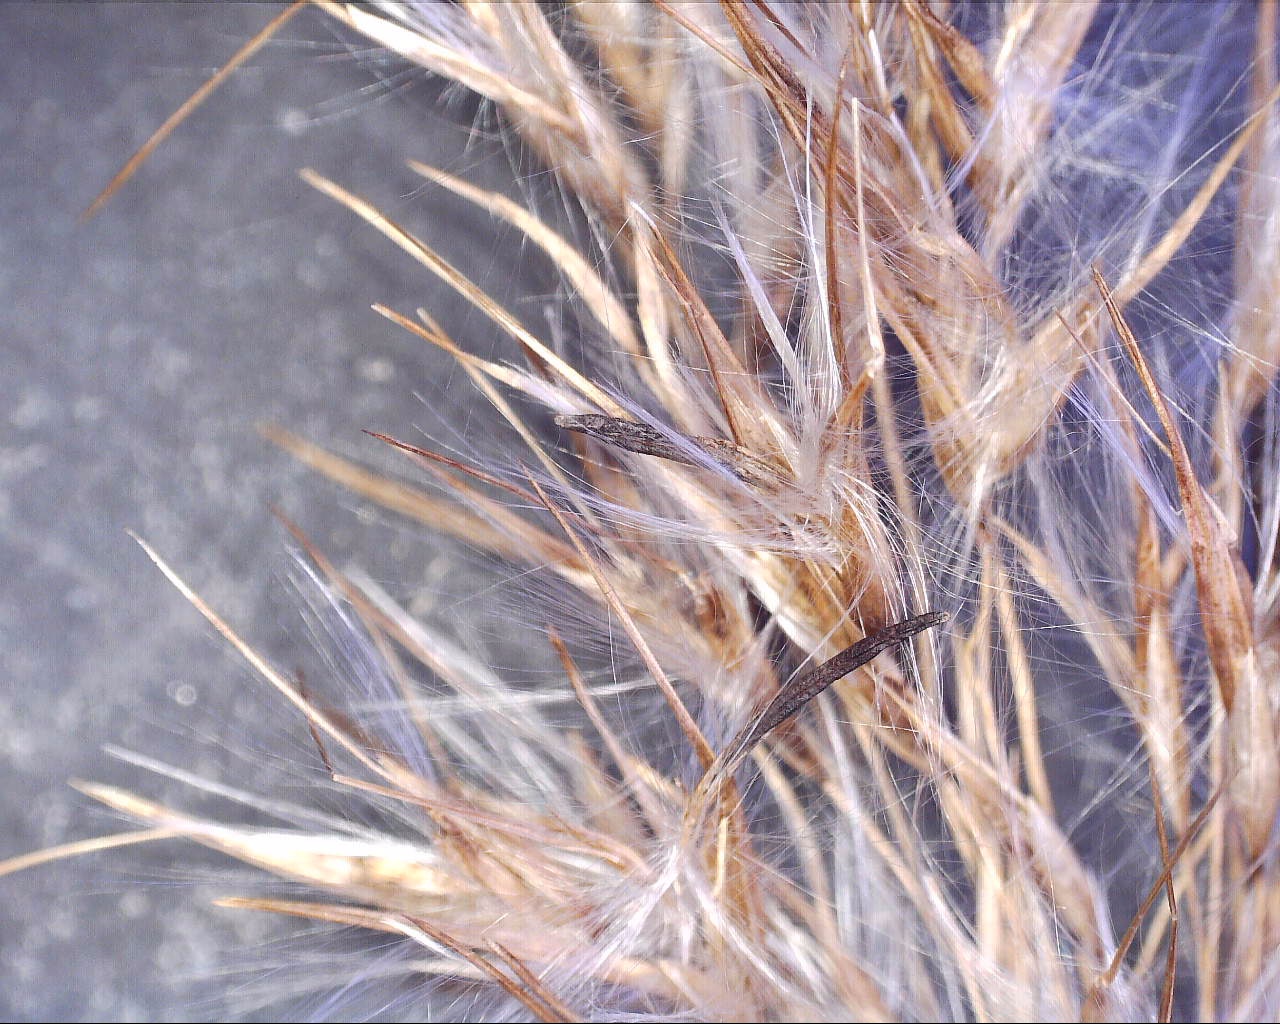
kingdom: Fungi
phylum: Ascomycota
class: Sordariomycetes
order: Hypocreales
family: Clavicipitaceae
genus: Claviceps
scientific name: Claviceps arundinis
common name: tagrør-meldrøjer
